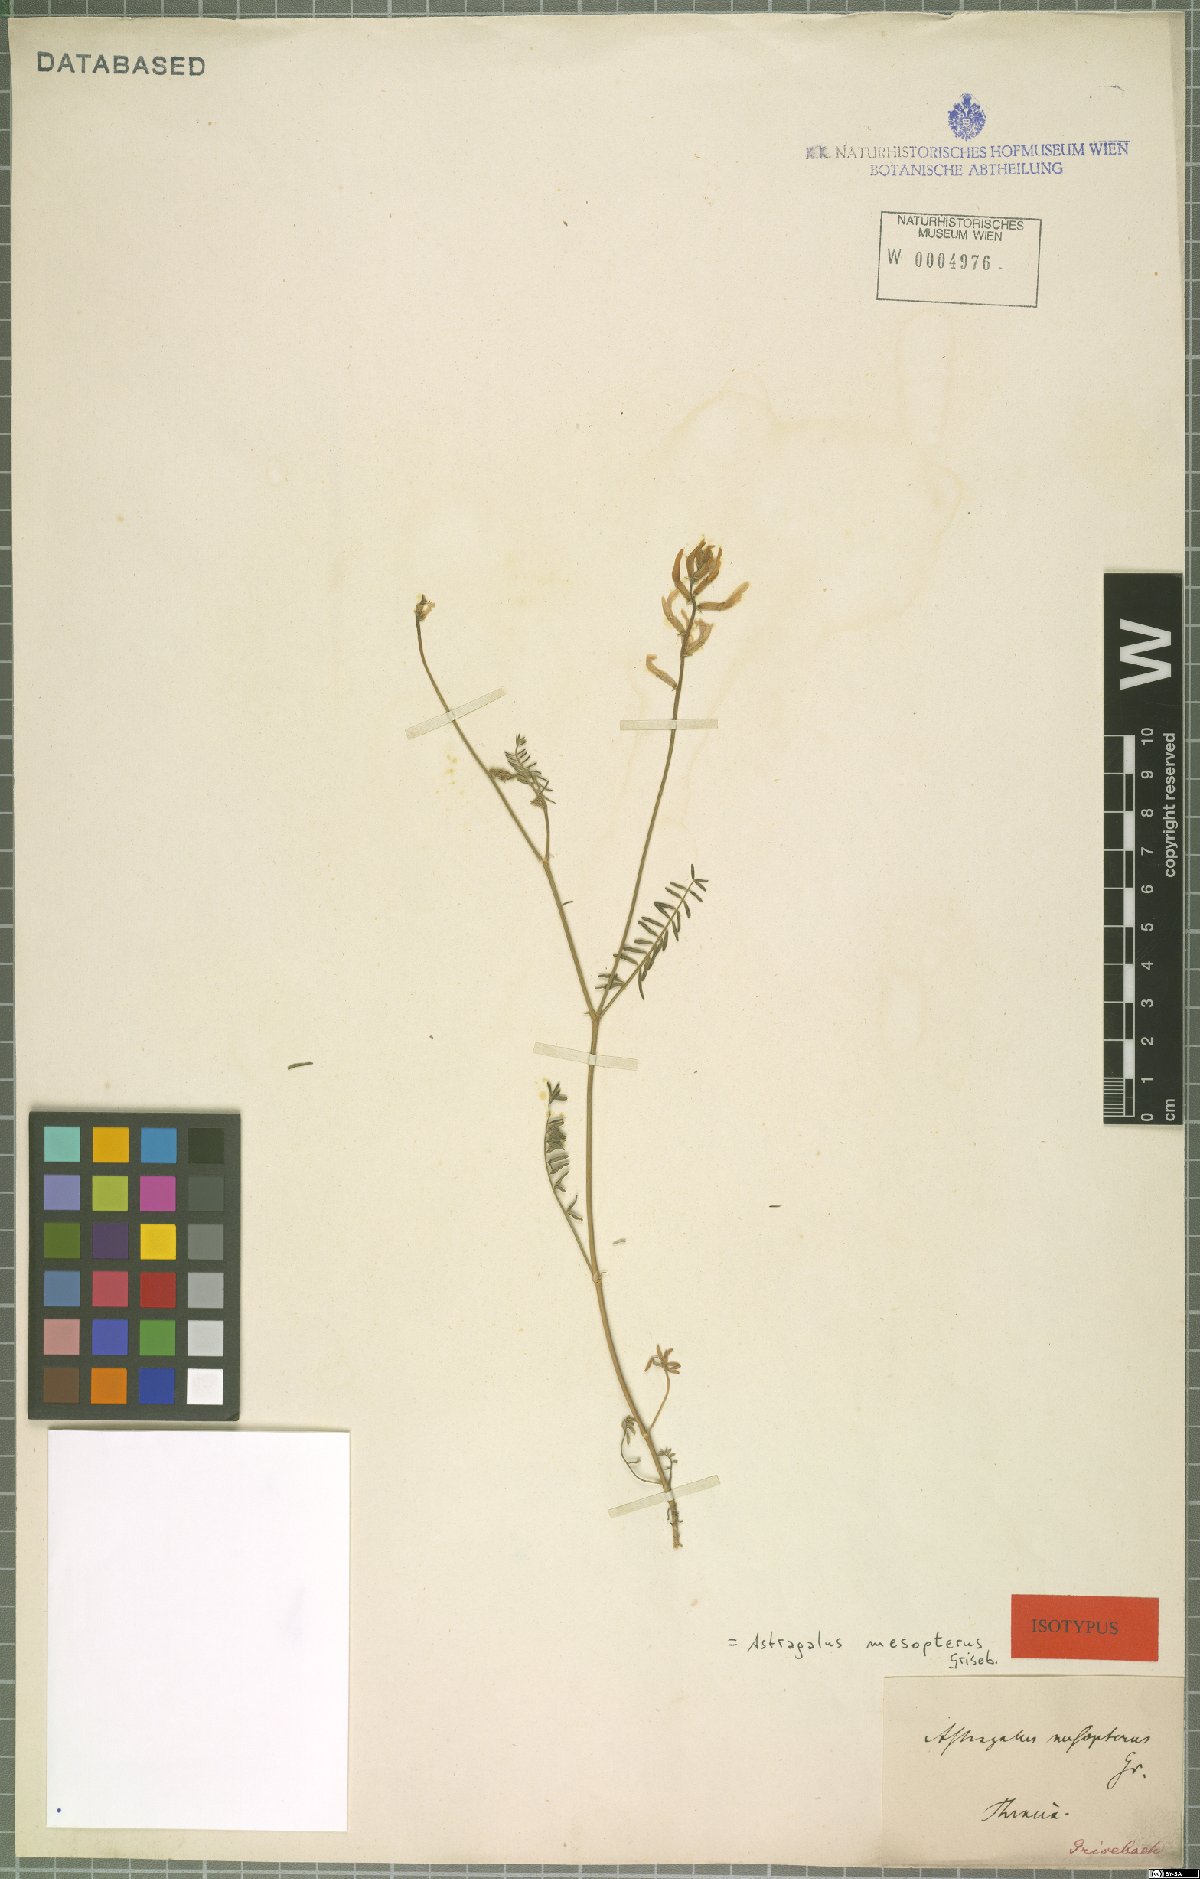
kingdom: Plantae
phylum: Tracheophyta
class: Magnoliopsida
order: Fabales
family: Fabaceae
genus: Astragalus
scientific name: Astragalus mesopterus
